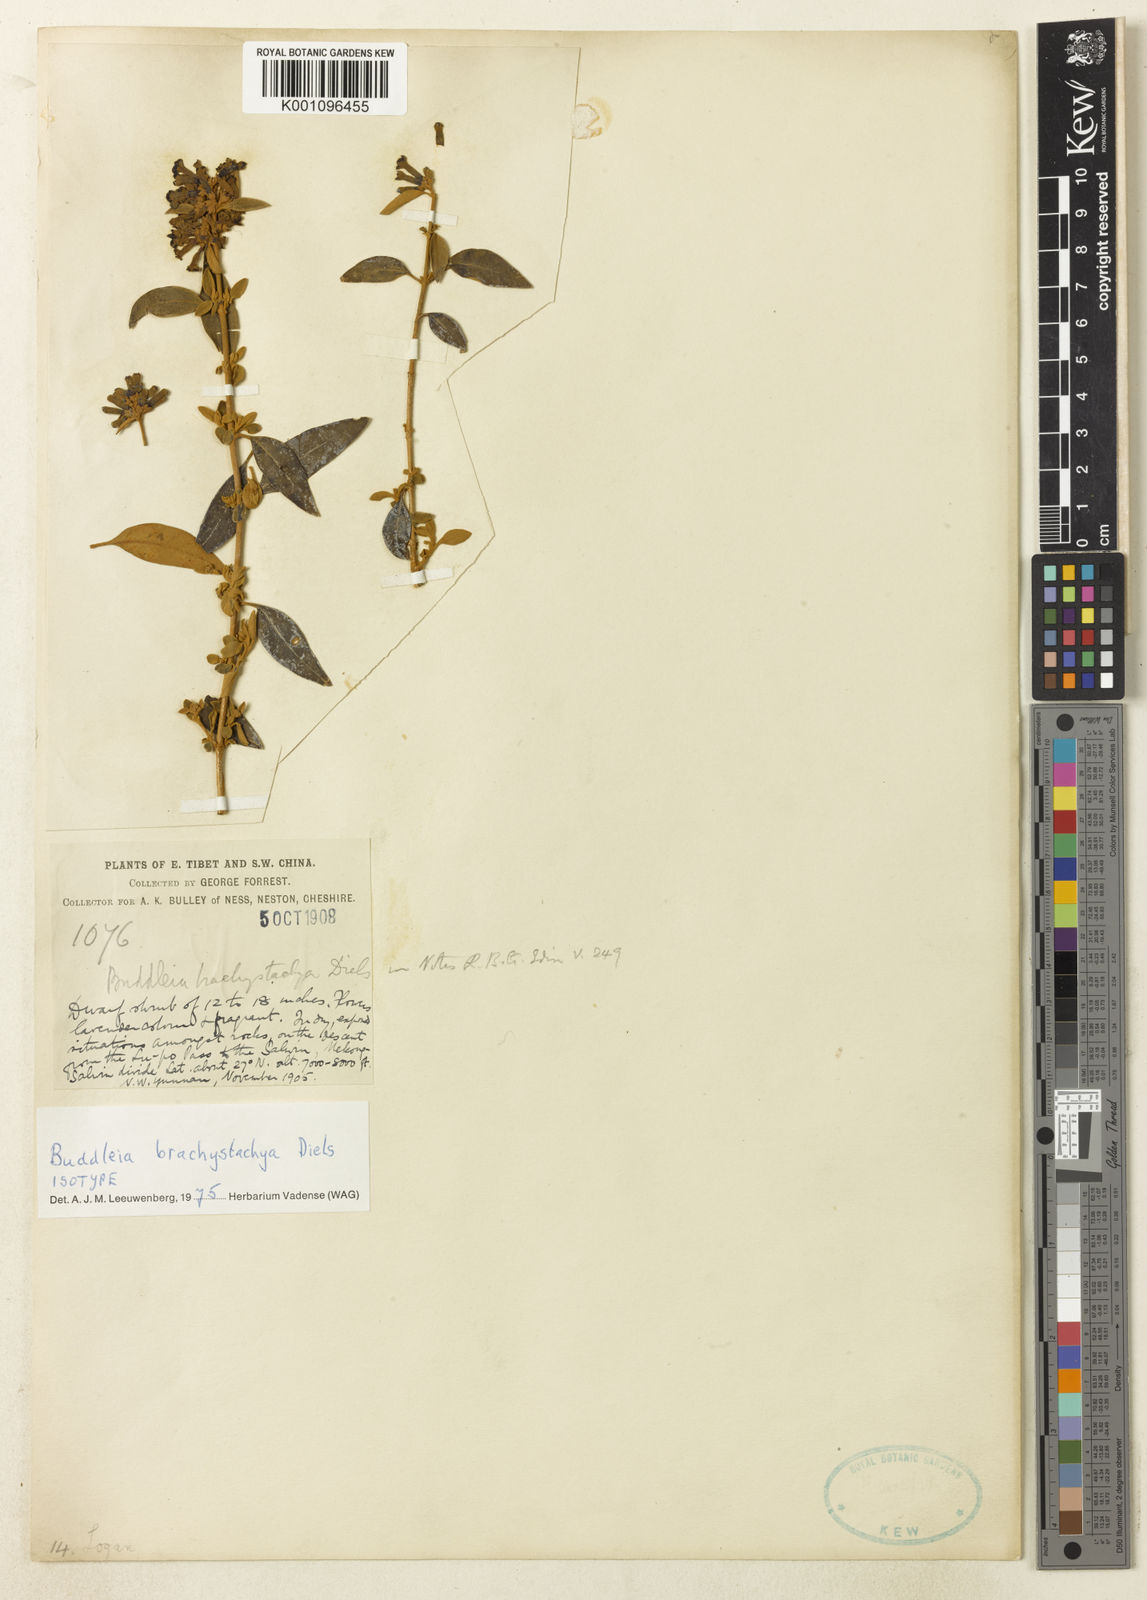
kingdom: Plantae
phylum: Tracheophyta
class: Magnoliopsida
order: Lamiales
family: Scrophulariaceae
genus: Buddleja
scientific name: Buddleja brachystachya
